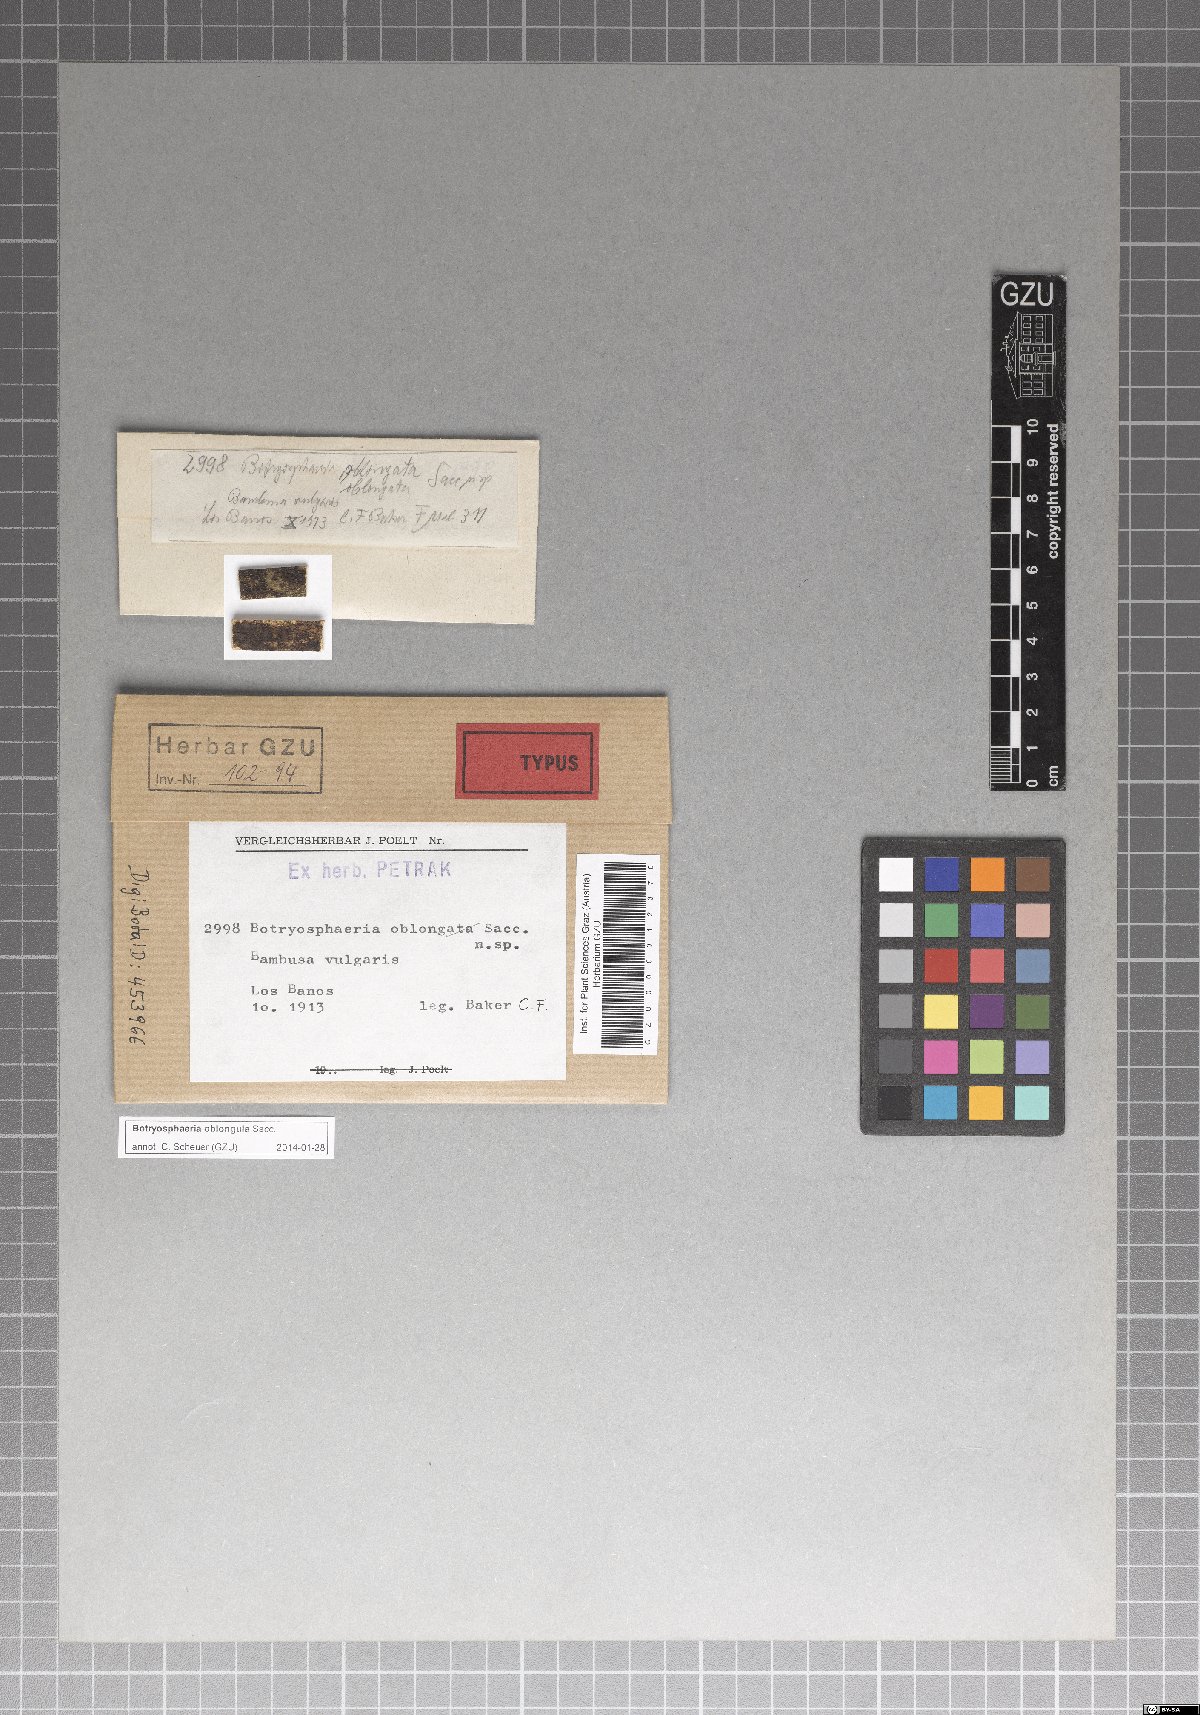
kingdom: Fungi
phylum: Ascomycota
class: Dothideomycetes
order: Botryosphaeriales
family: Botryosphaeriaceae
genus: Botryosphaeria
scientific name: Botryosphaeria oblongula
